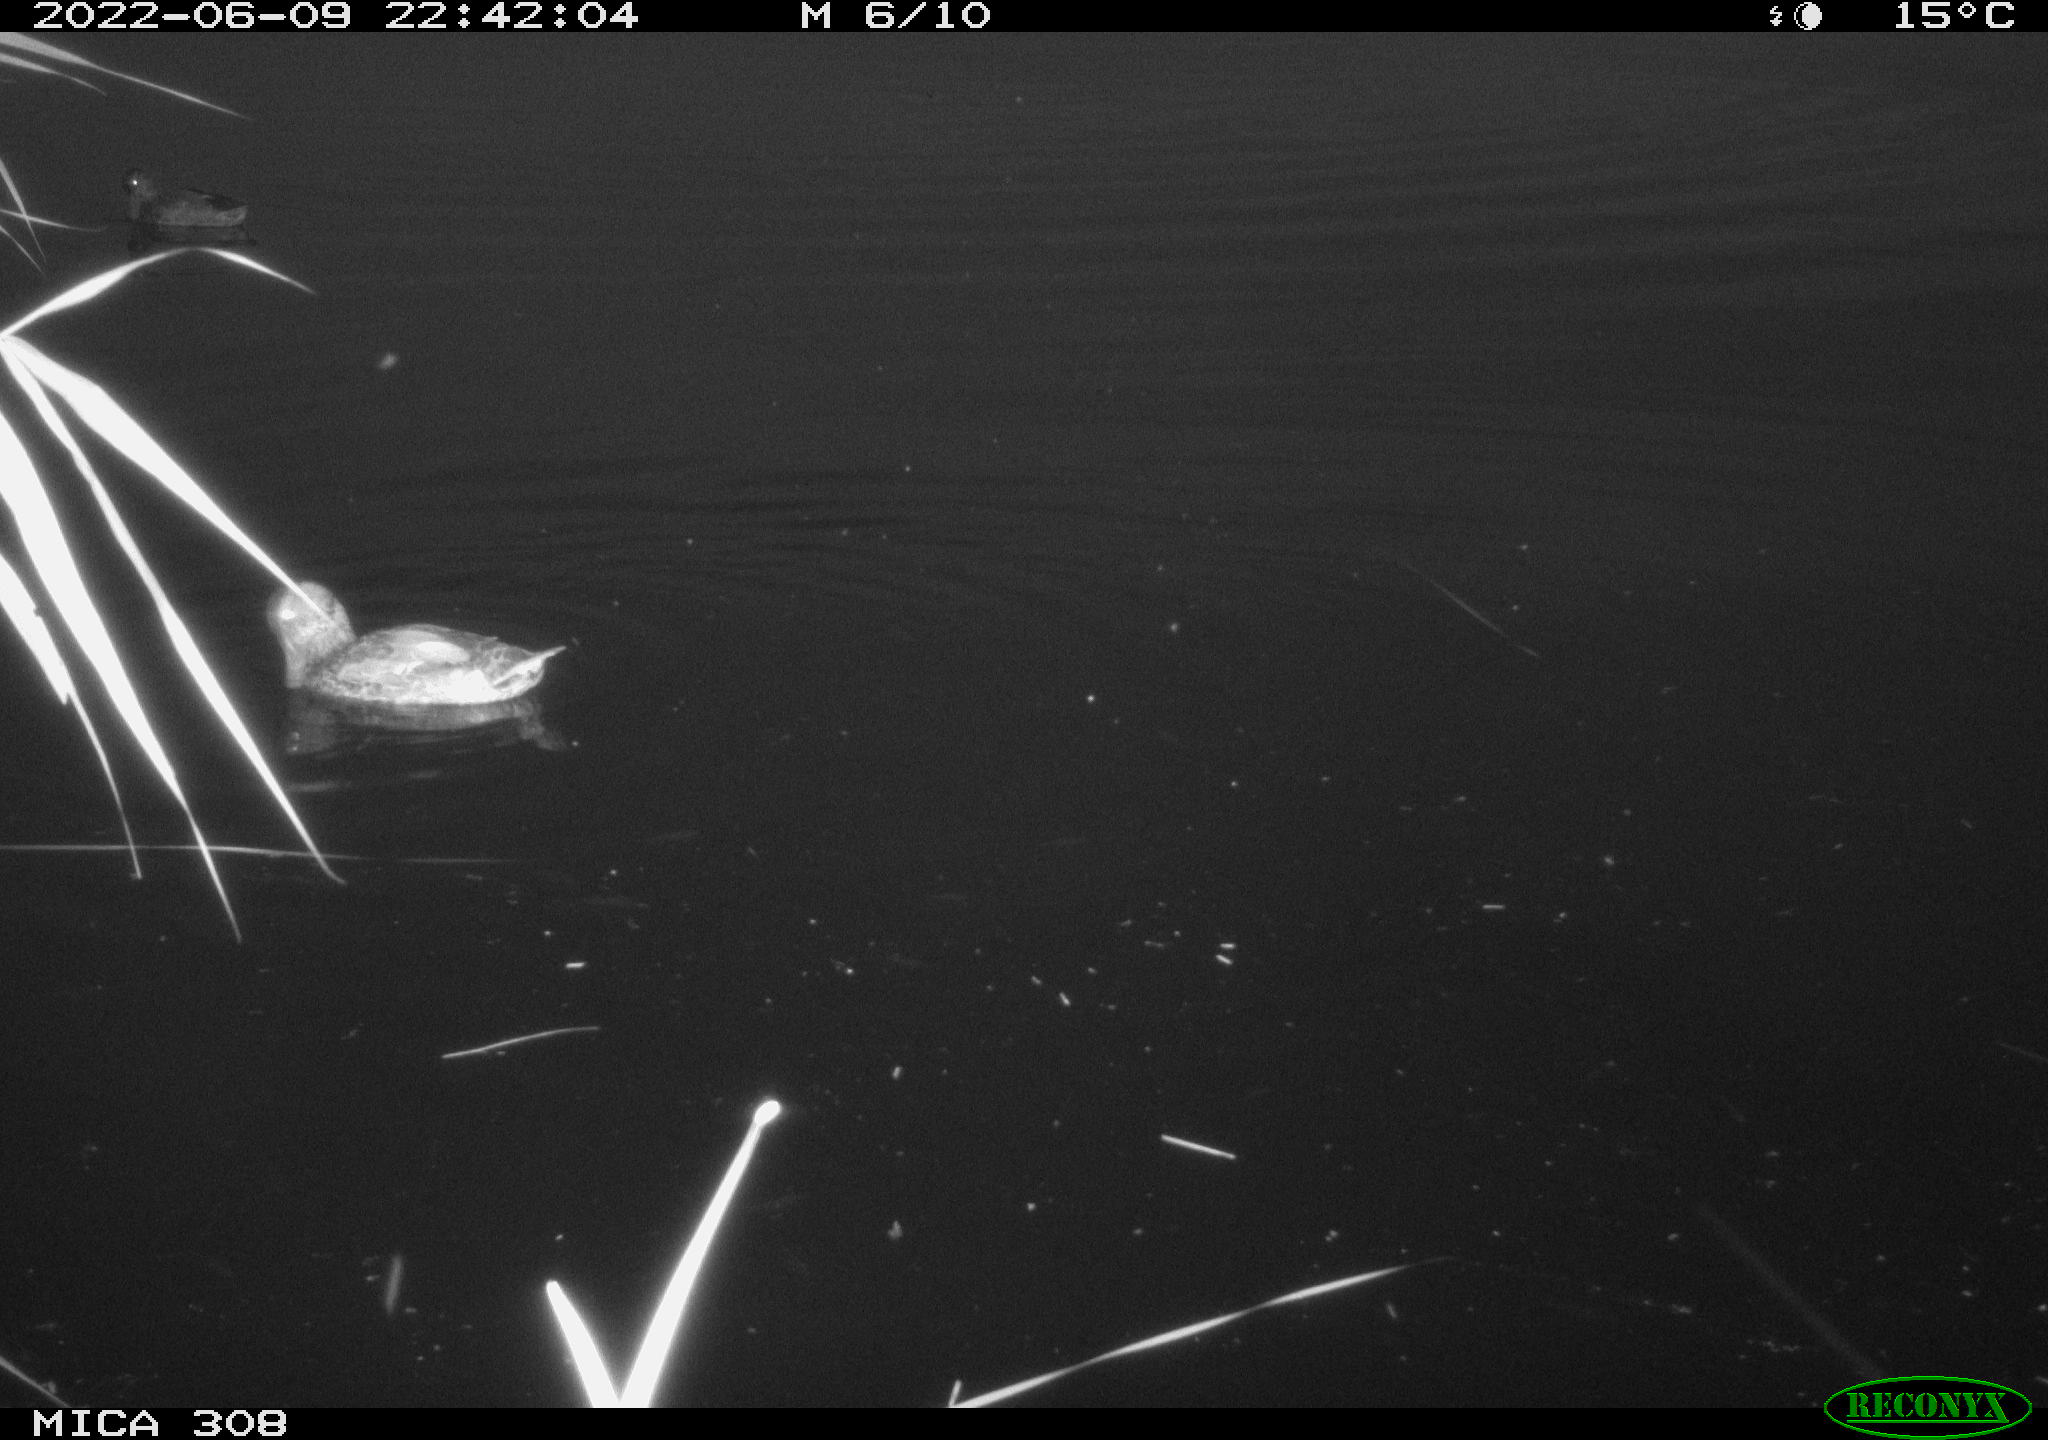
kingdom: Animalia
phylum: Chordata
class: Aves
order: Anseriformes
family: Anatidae
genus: Anas
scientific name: Anas platyrhynchos
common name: Mallard
